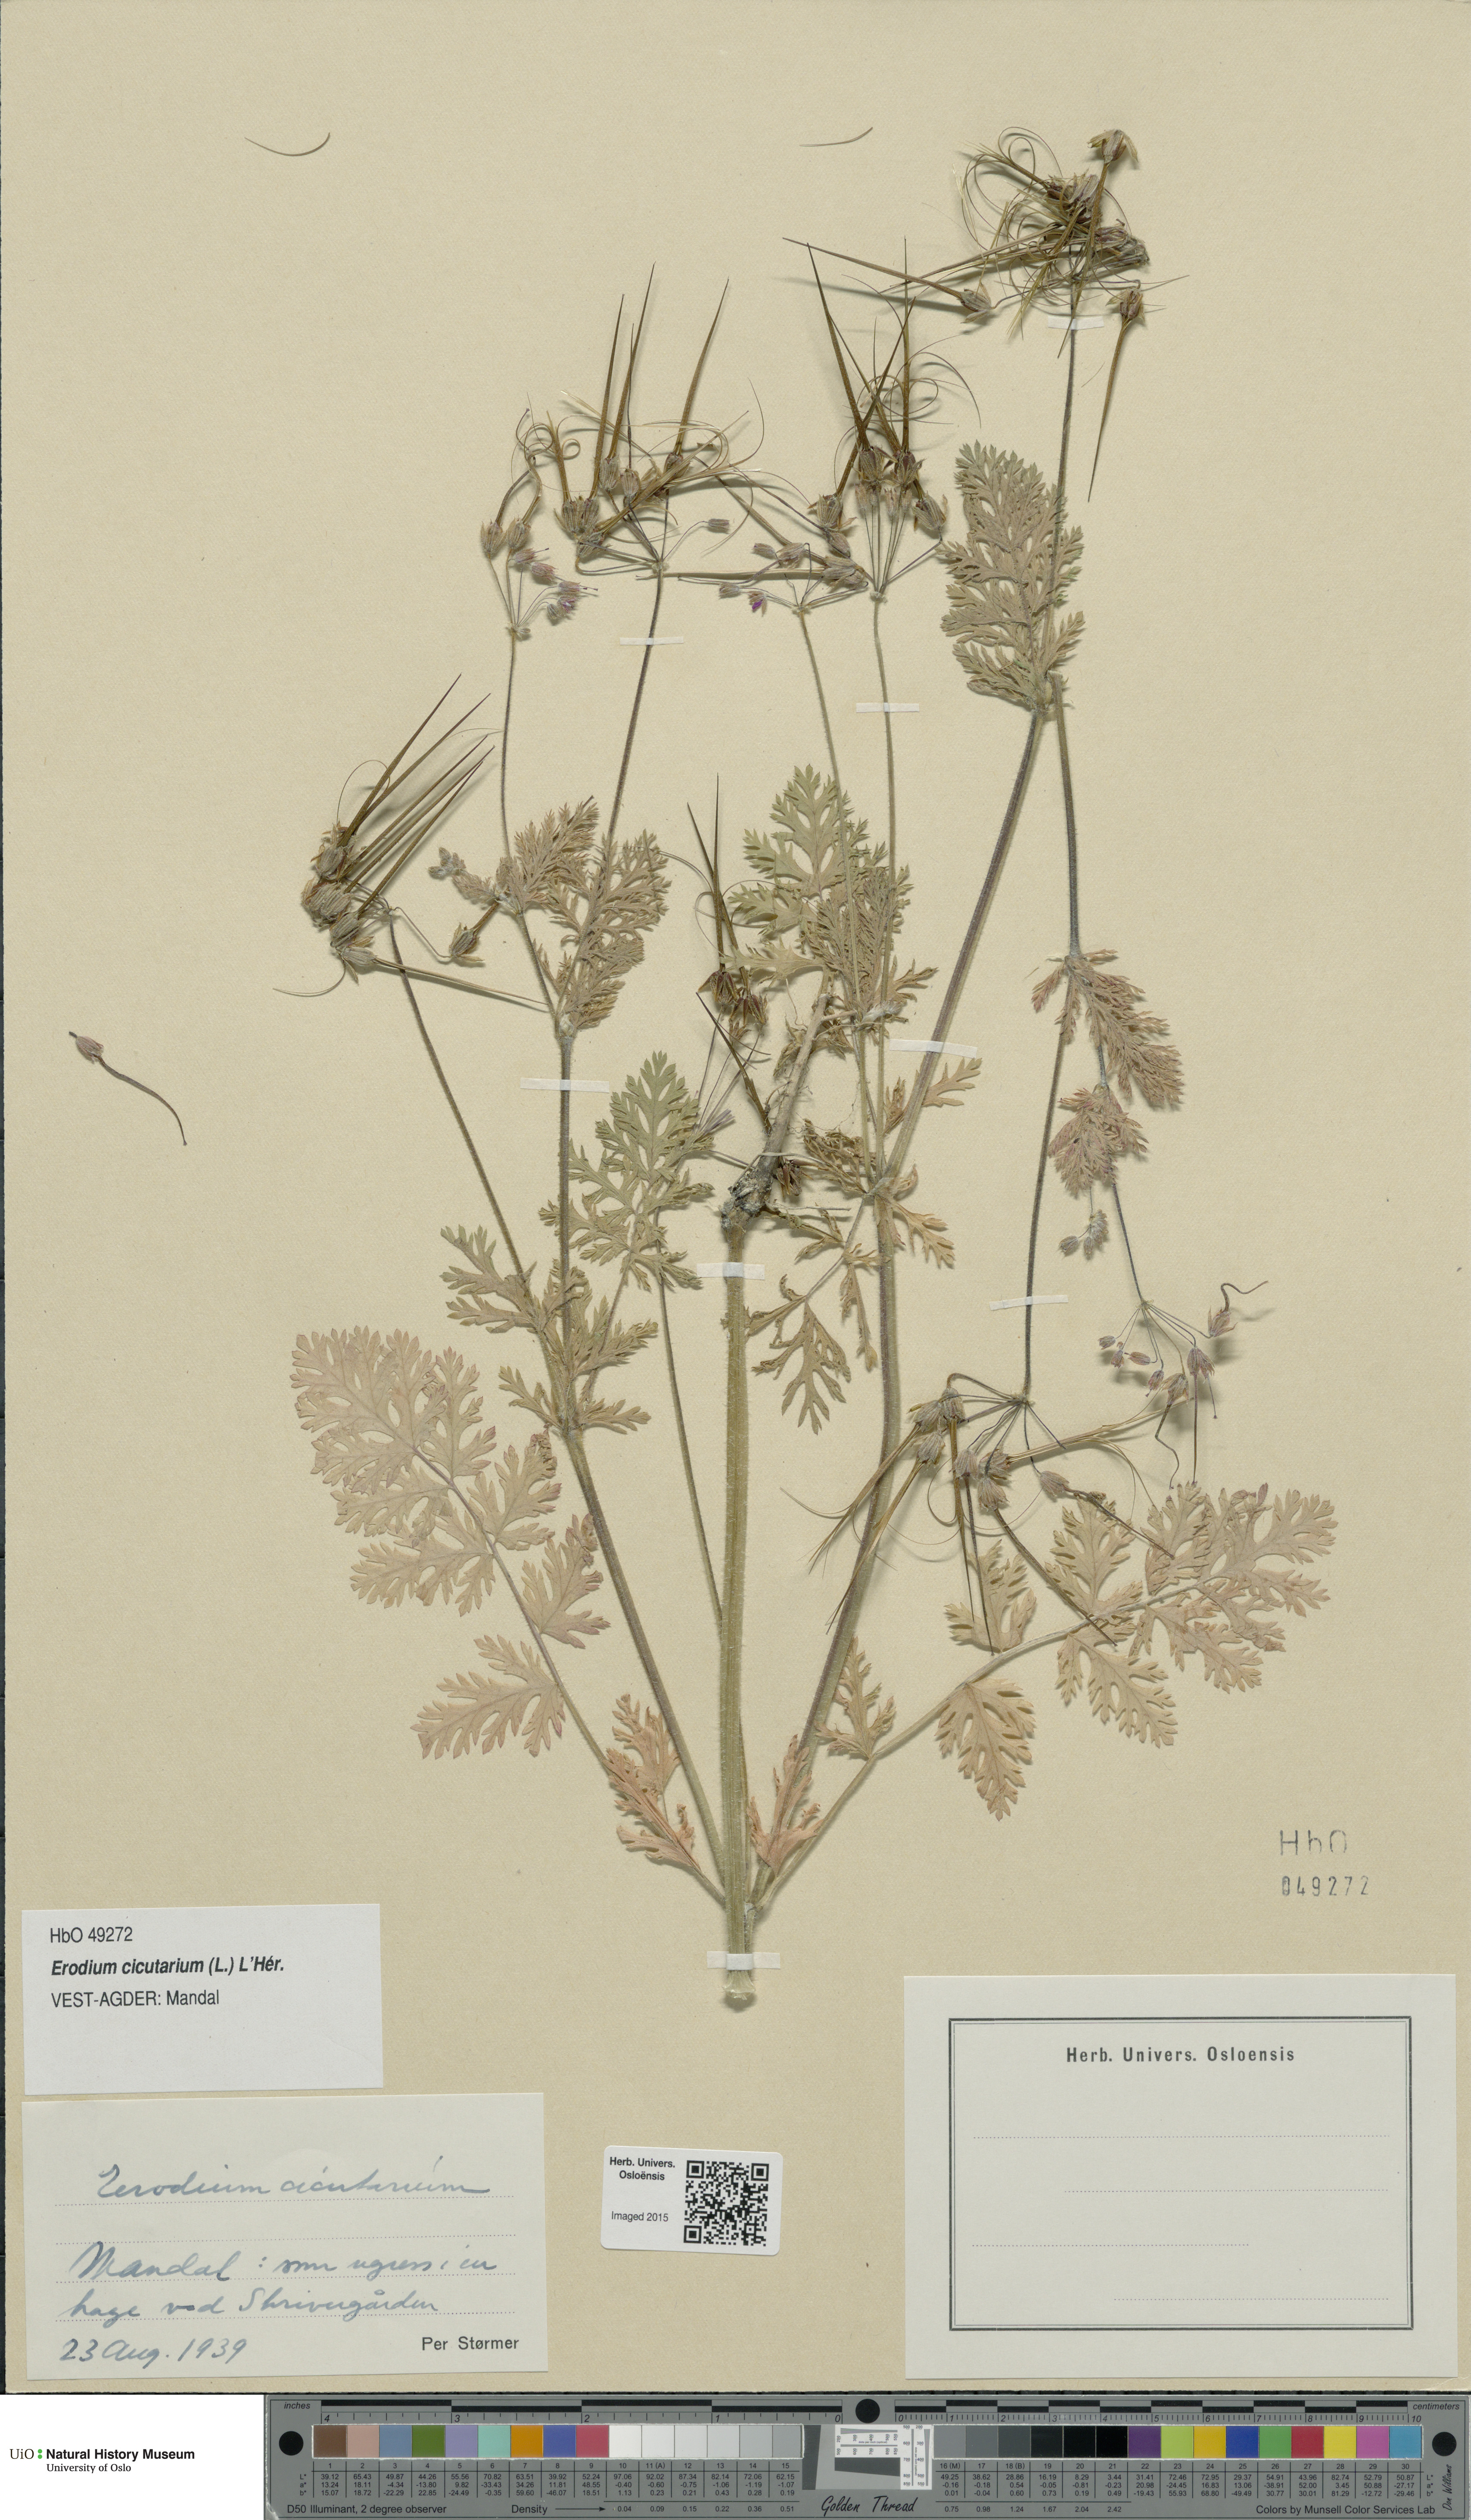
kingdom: Plantae
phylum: Tracheophyta
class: Magnoliopsida
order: Geraniales
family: Geraniaceae
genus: Erodium
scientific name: Erodium cicutarium
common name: Common stork's-bill
